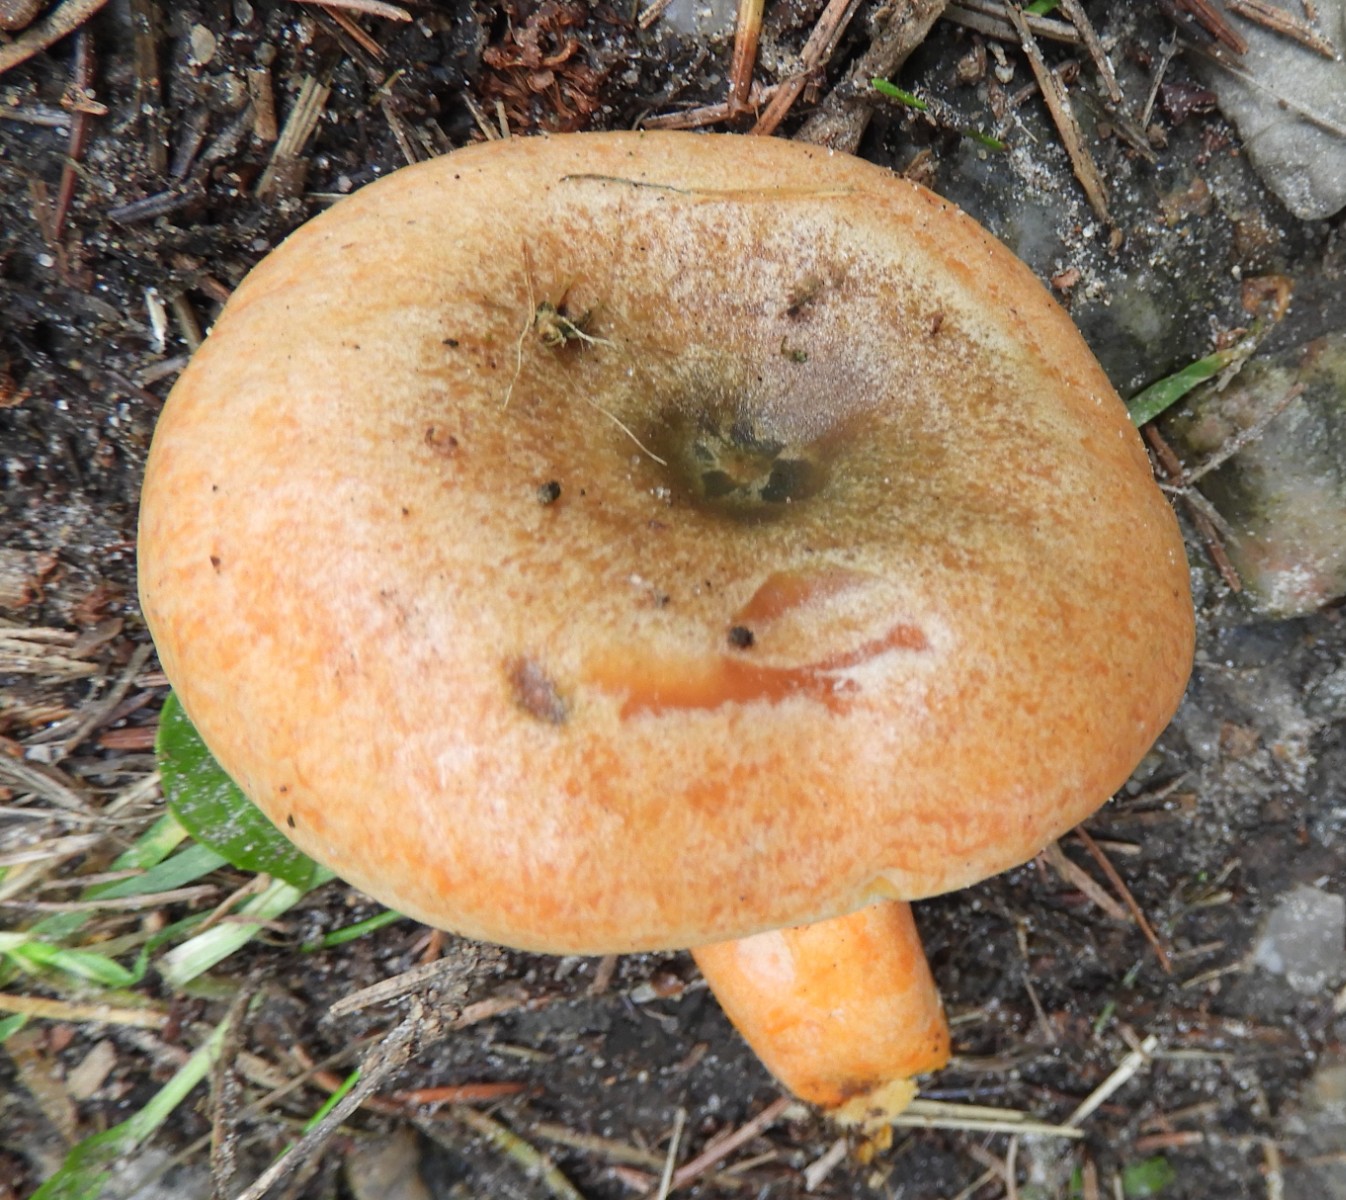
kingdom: Fungi
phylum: Basidiomycota
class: Agaricomycetes
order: Russulales
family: Russulaceae
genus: Lactarius
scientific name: Lactarius deterrimus
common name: gran-mælkehat
